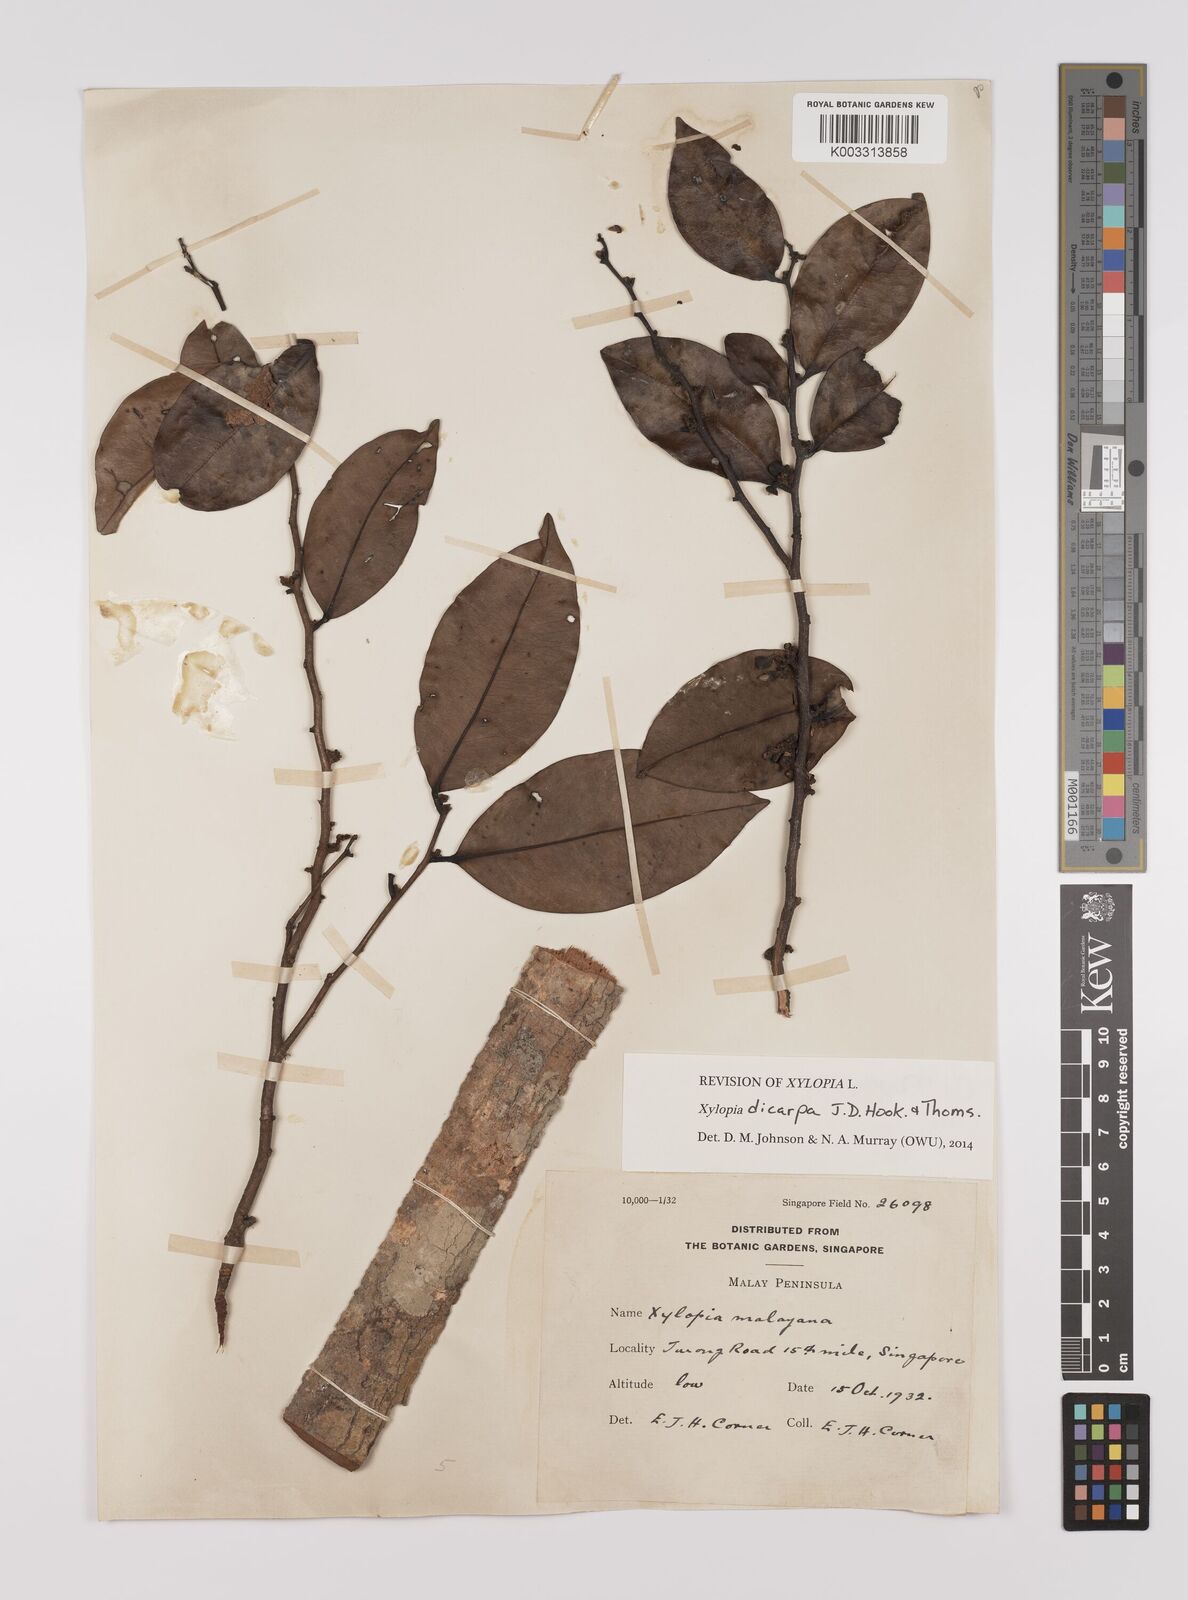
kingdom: Plantae
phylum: Tracheophyta
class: Magnoliopsida
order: Magnoliales
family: Annonaceae
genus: Xylopia
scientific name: Xylopia malayana
